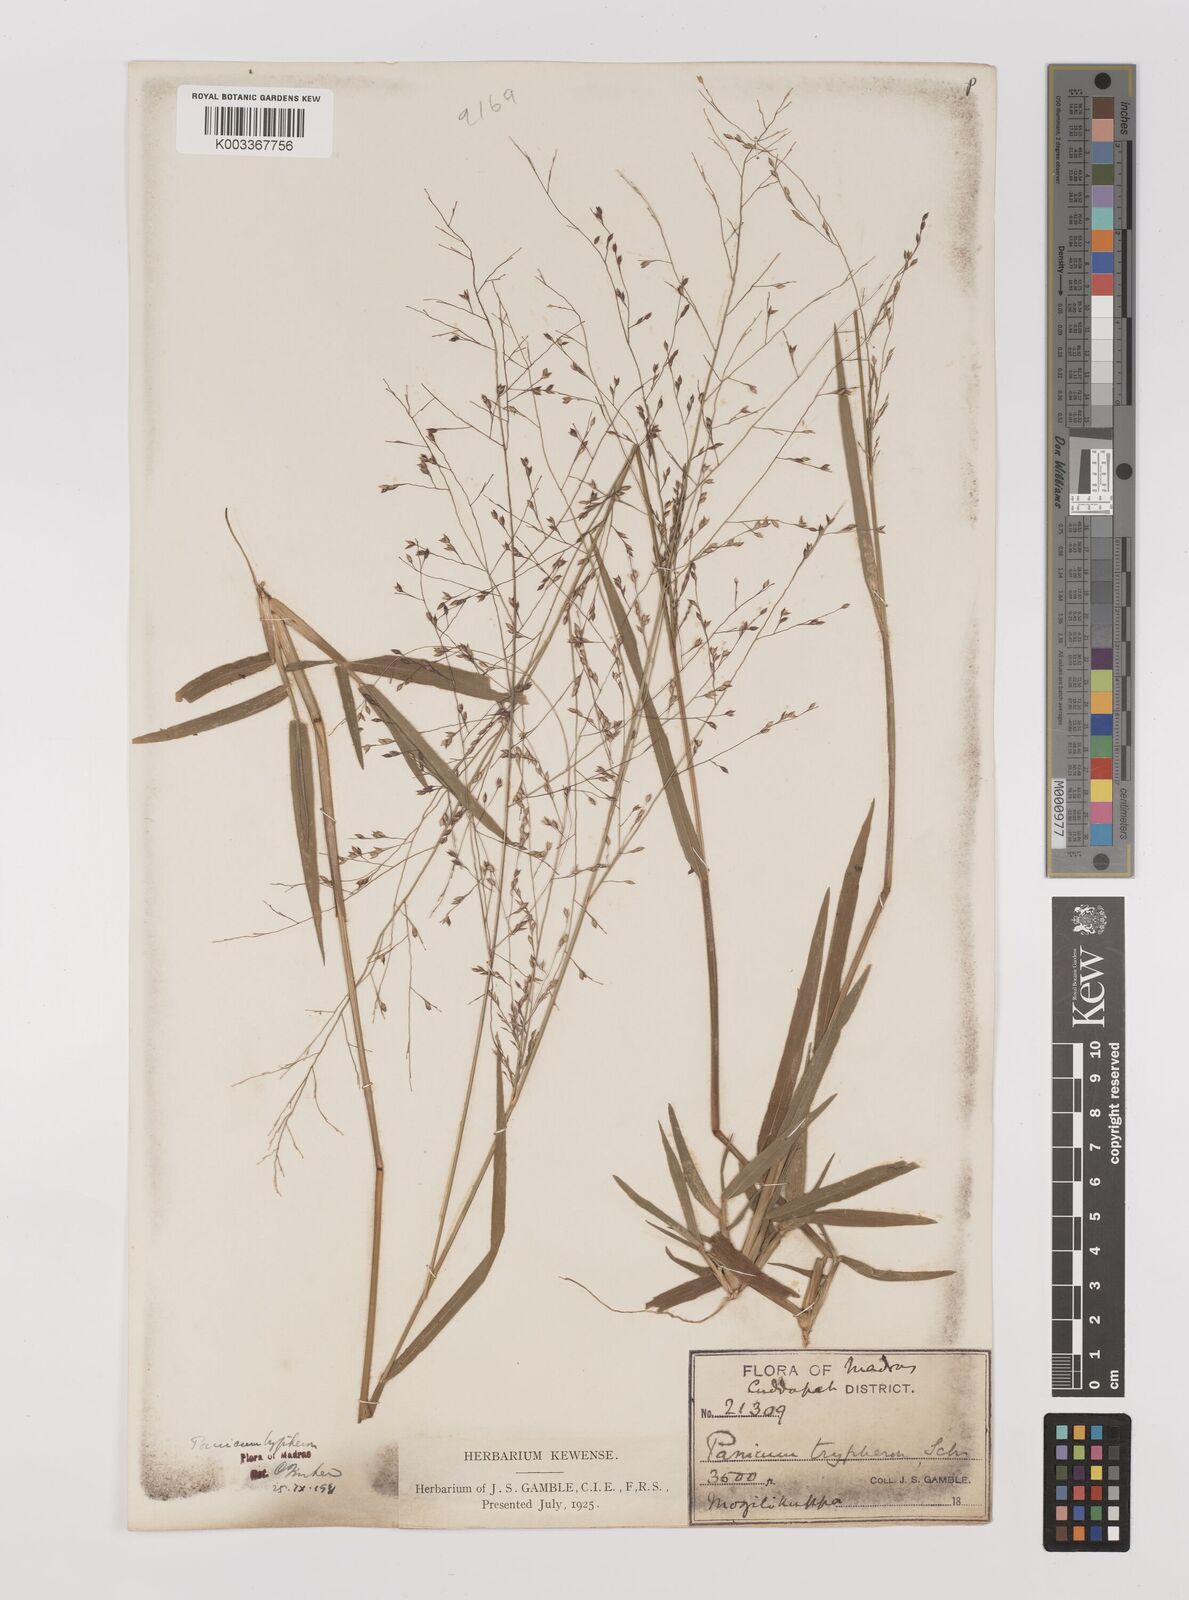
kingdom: Plantae
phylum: Tracheophyta
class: Liliopsida
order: Poales
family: Poaceae
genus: Panicum
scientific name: Panicum curviflorum
